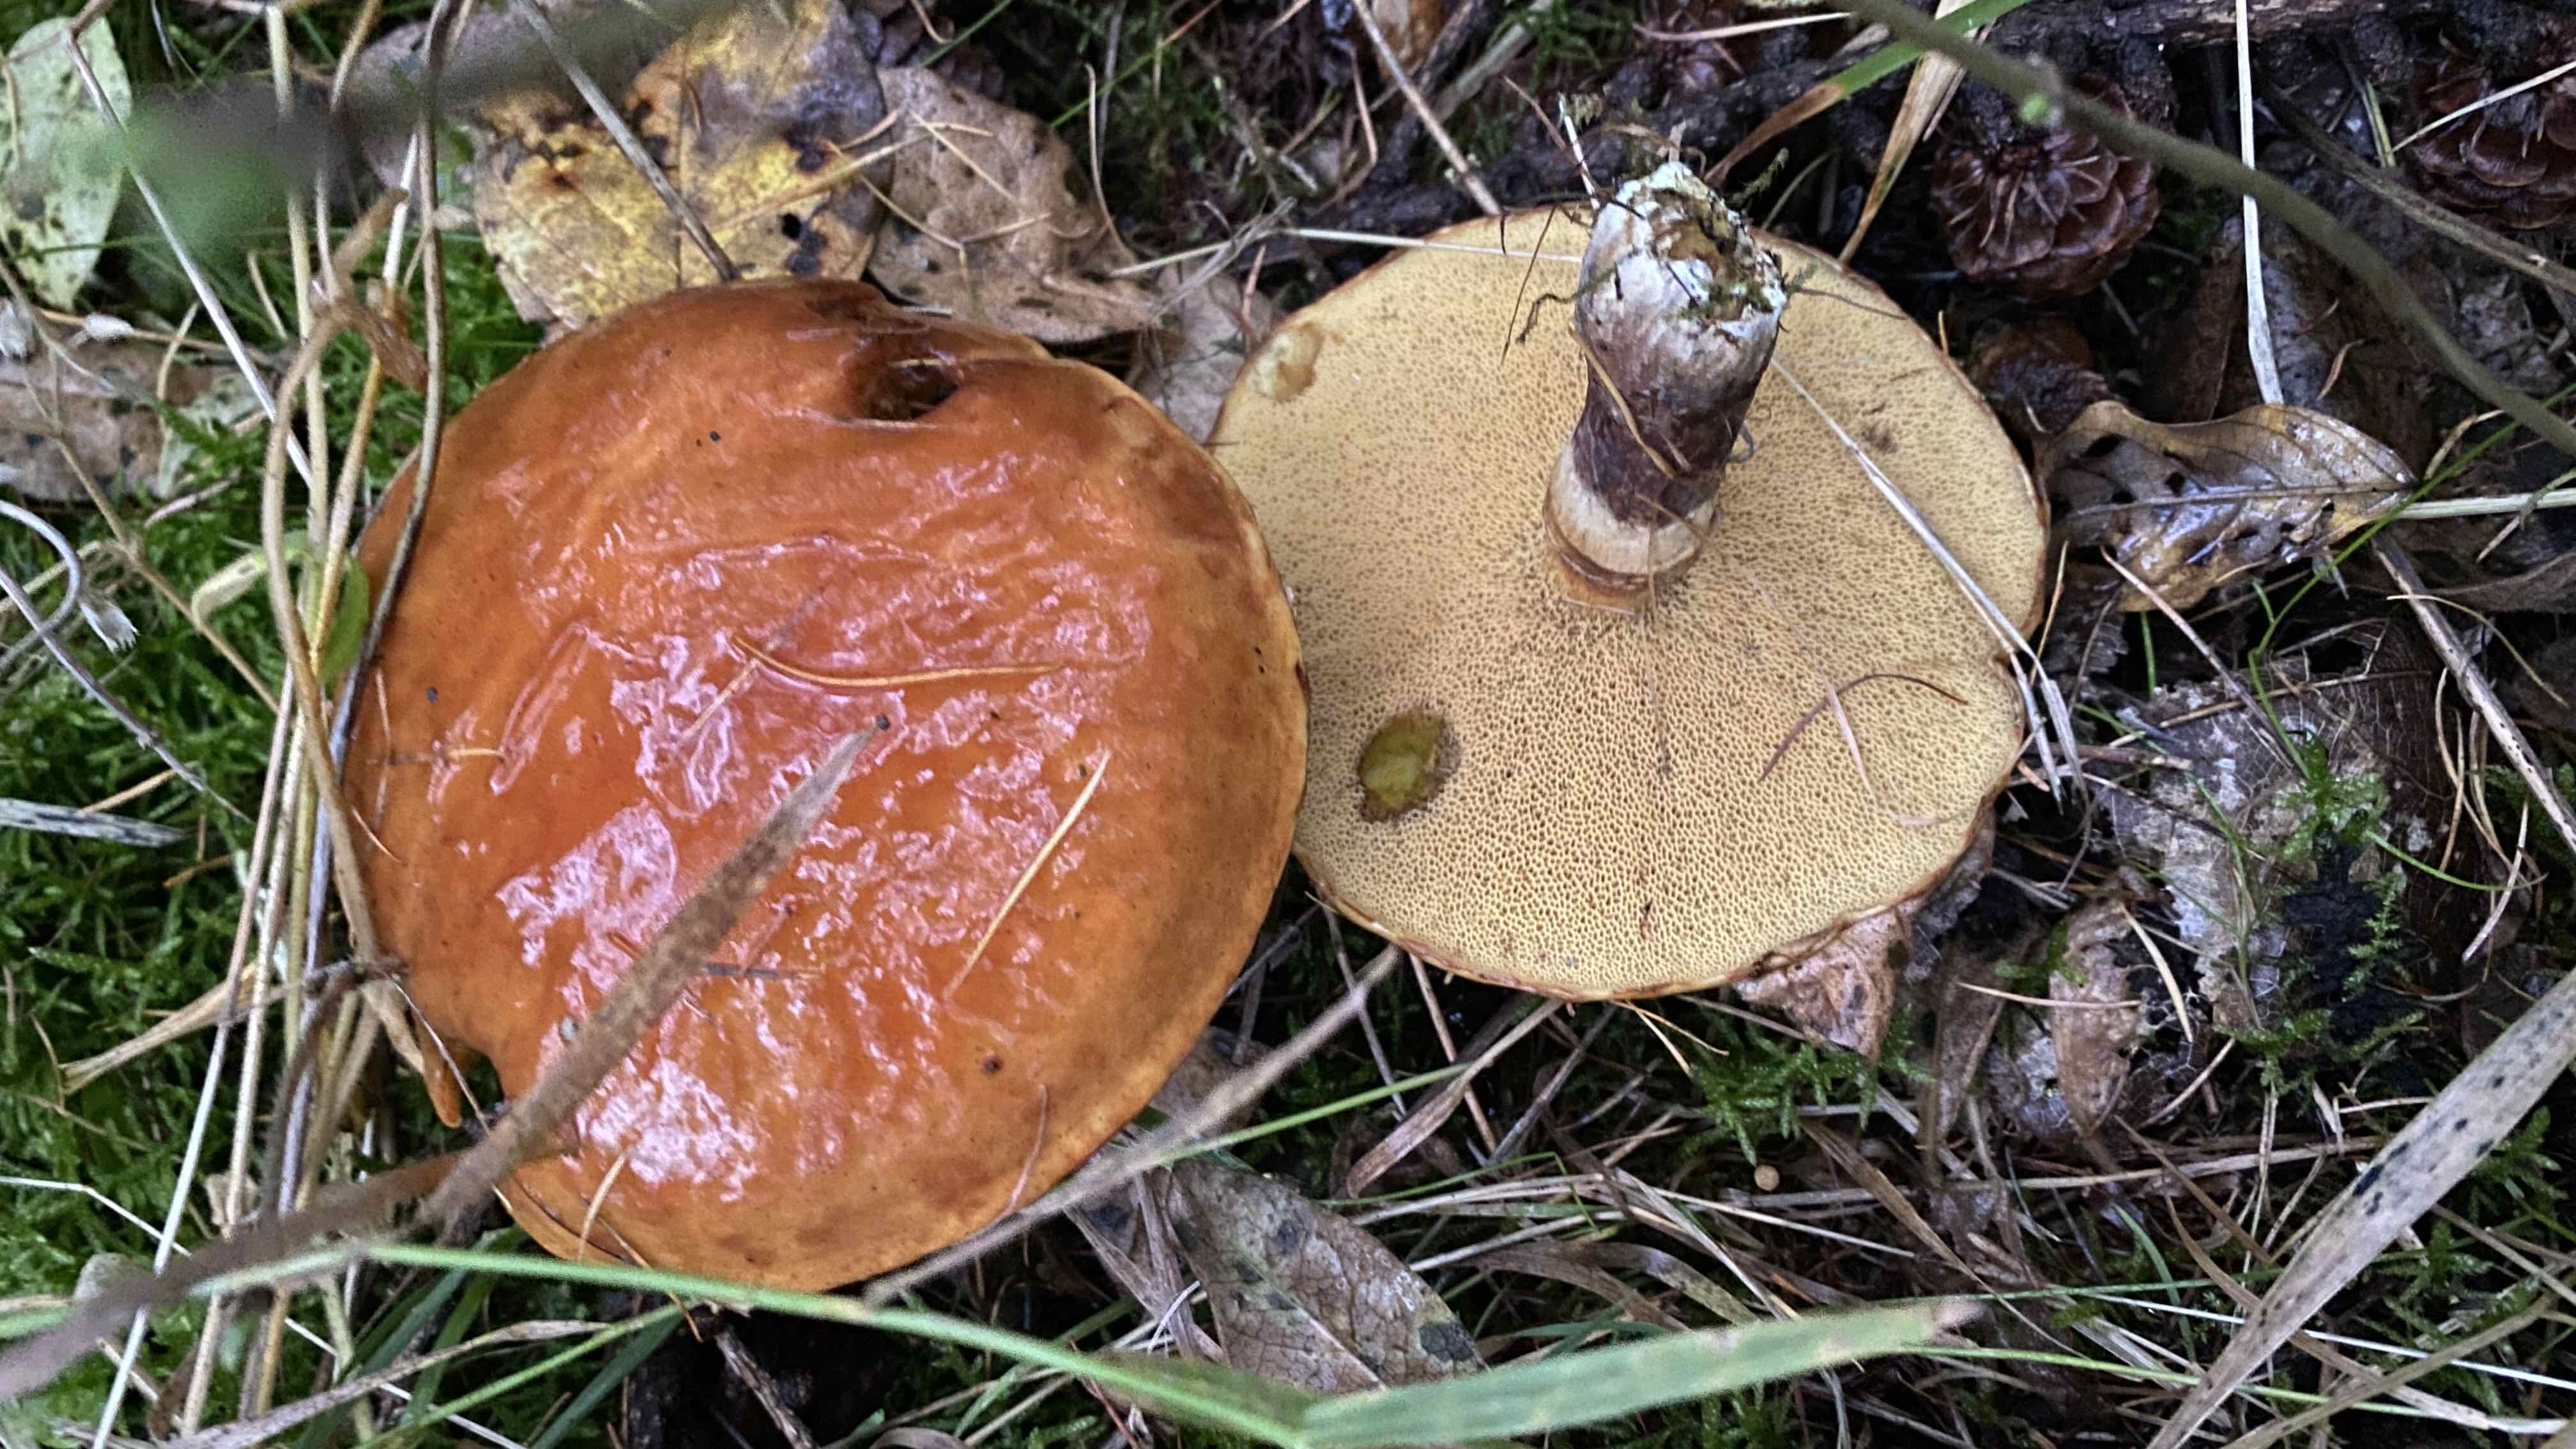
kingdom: Fungi
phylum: Basidiomycota
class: Agaricomycetes
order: Boletales
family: Suillaceae
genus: Suillus
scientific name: Suillus grevillei
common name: lærke-slimrørhat
